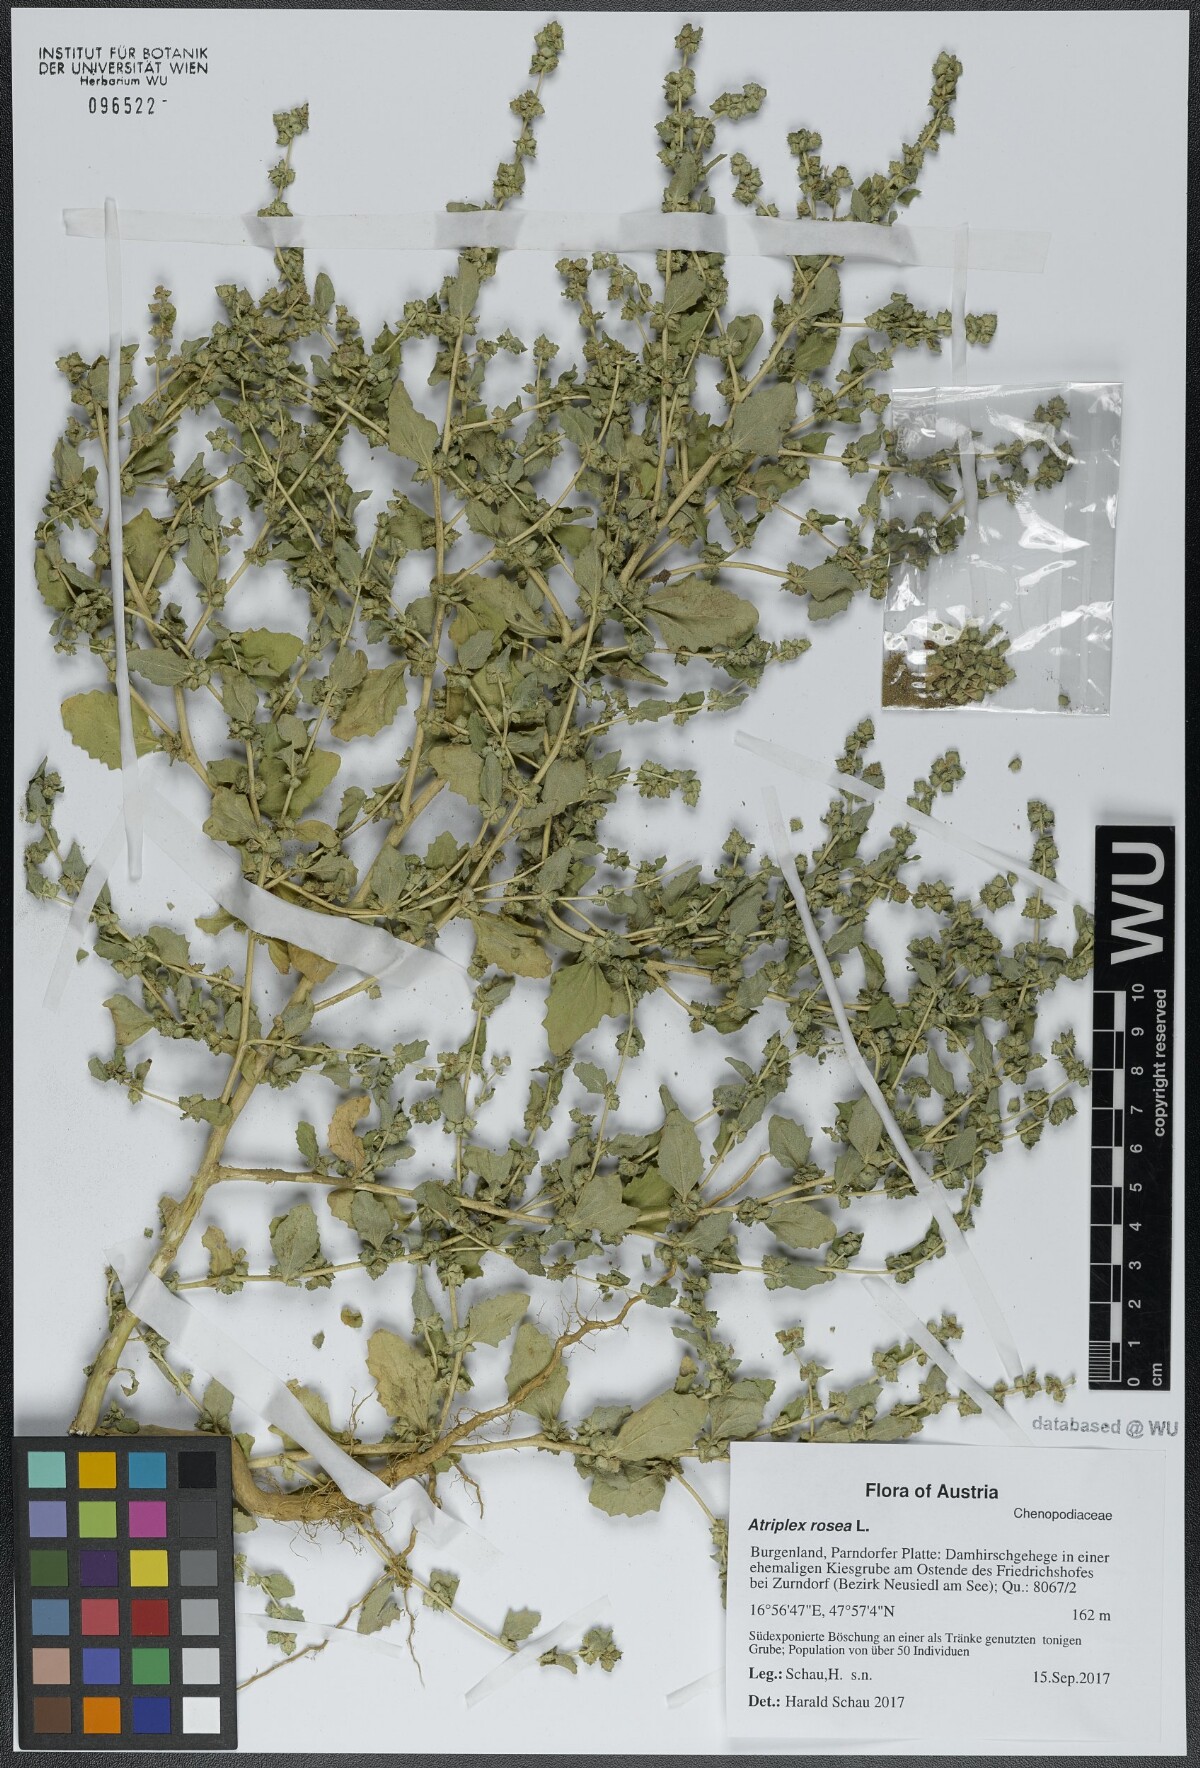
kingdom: Plantae
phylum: Tracheophyta
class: Magnoliopsida
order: Caryophyllales
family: Amaranthaceae
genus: Atriplex
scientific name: Atriplex rosea
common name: Tumbling saltweed
